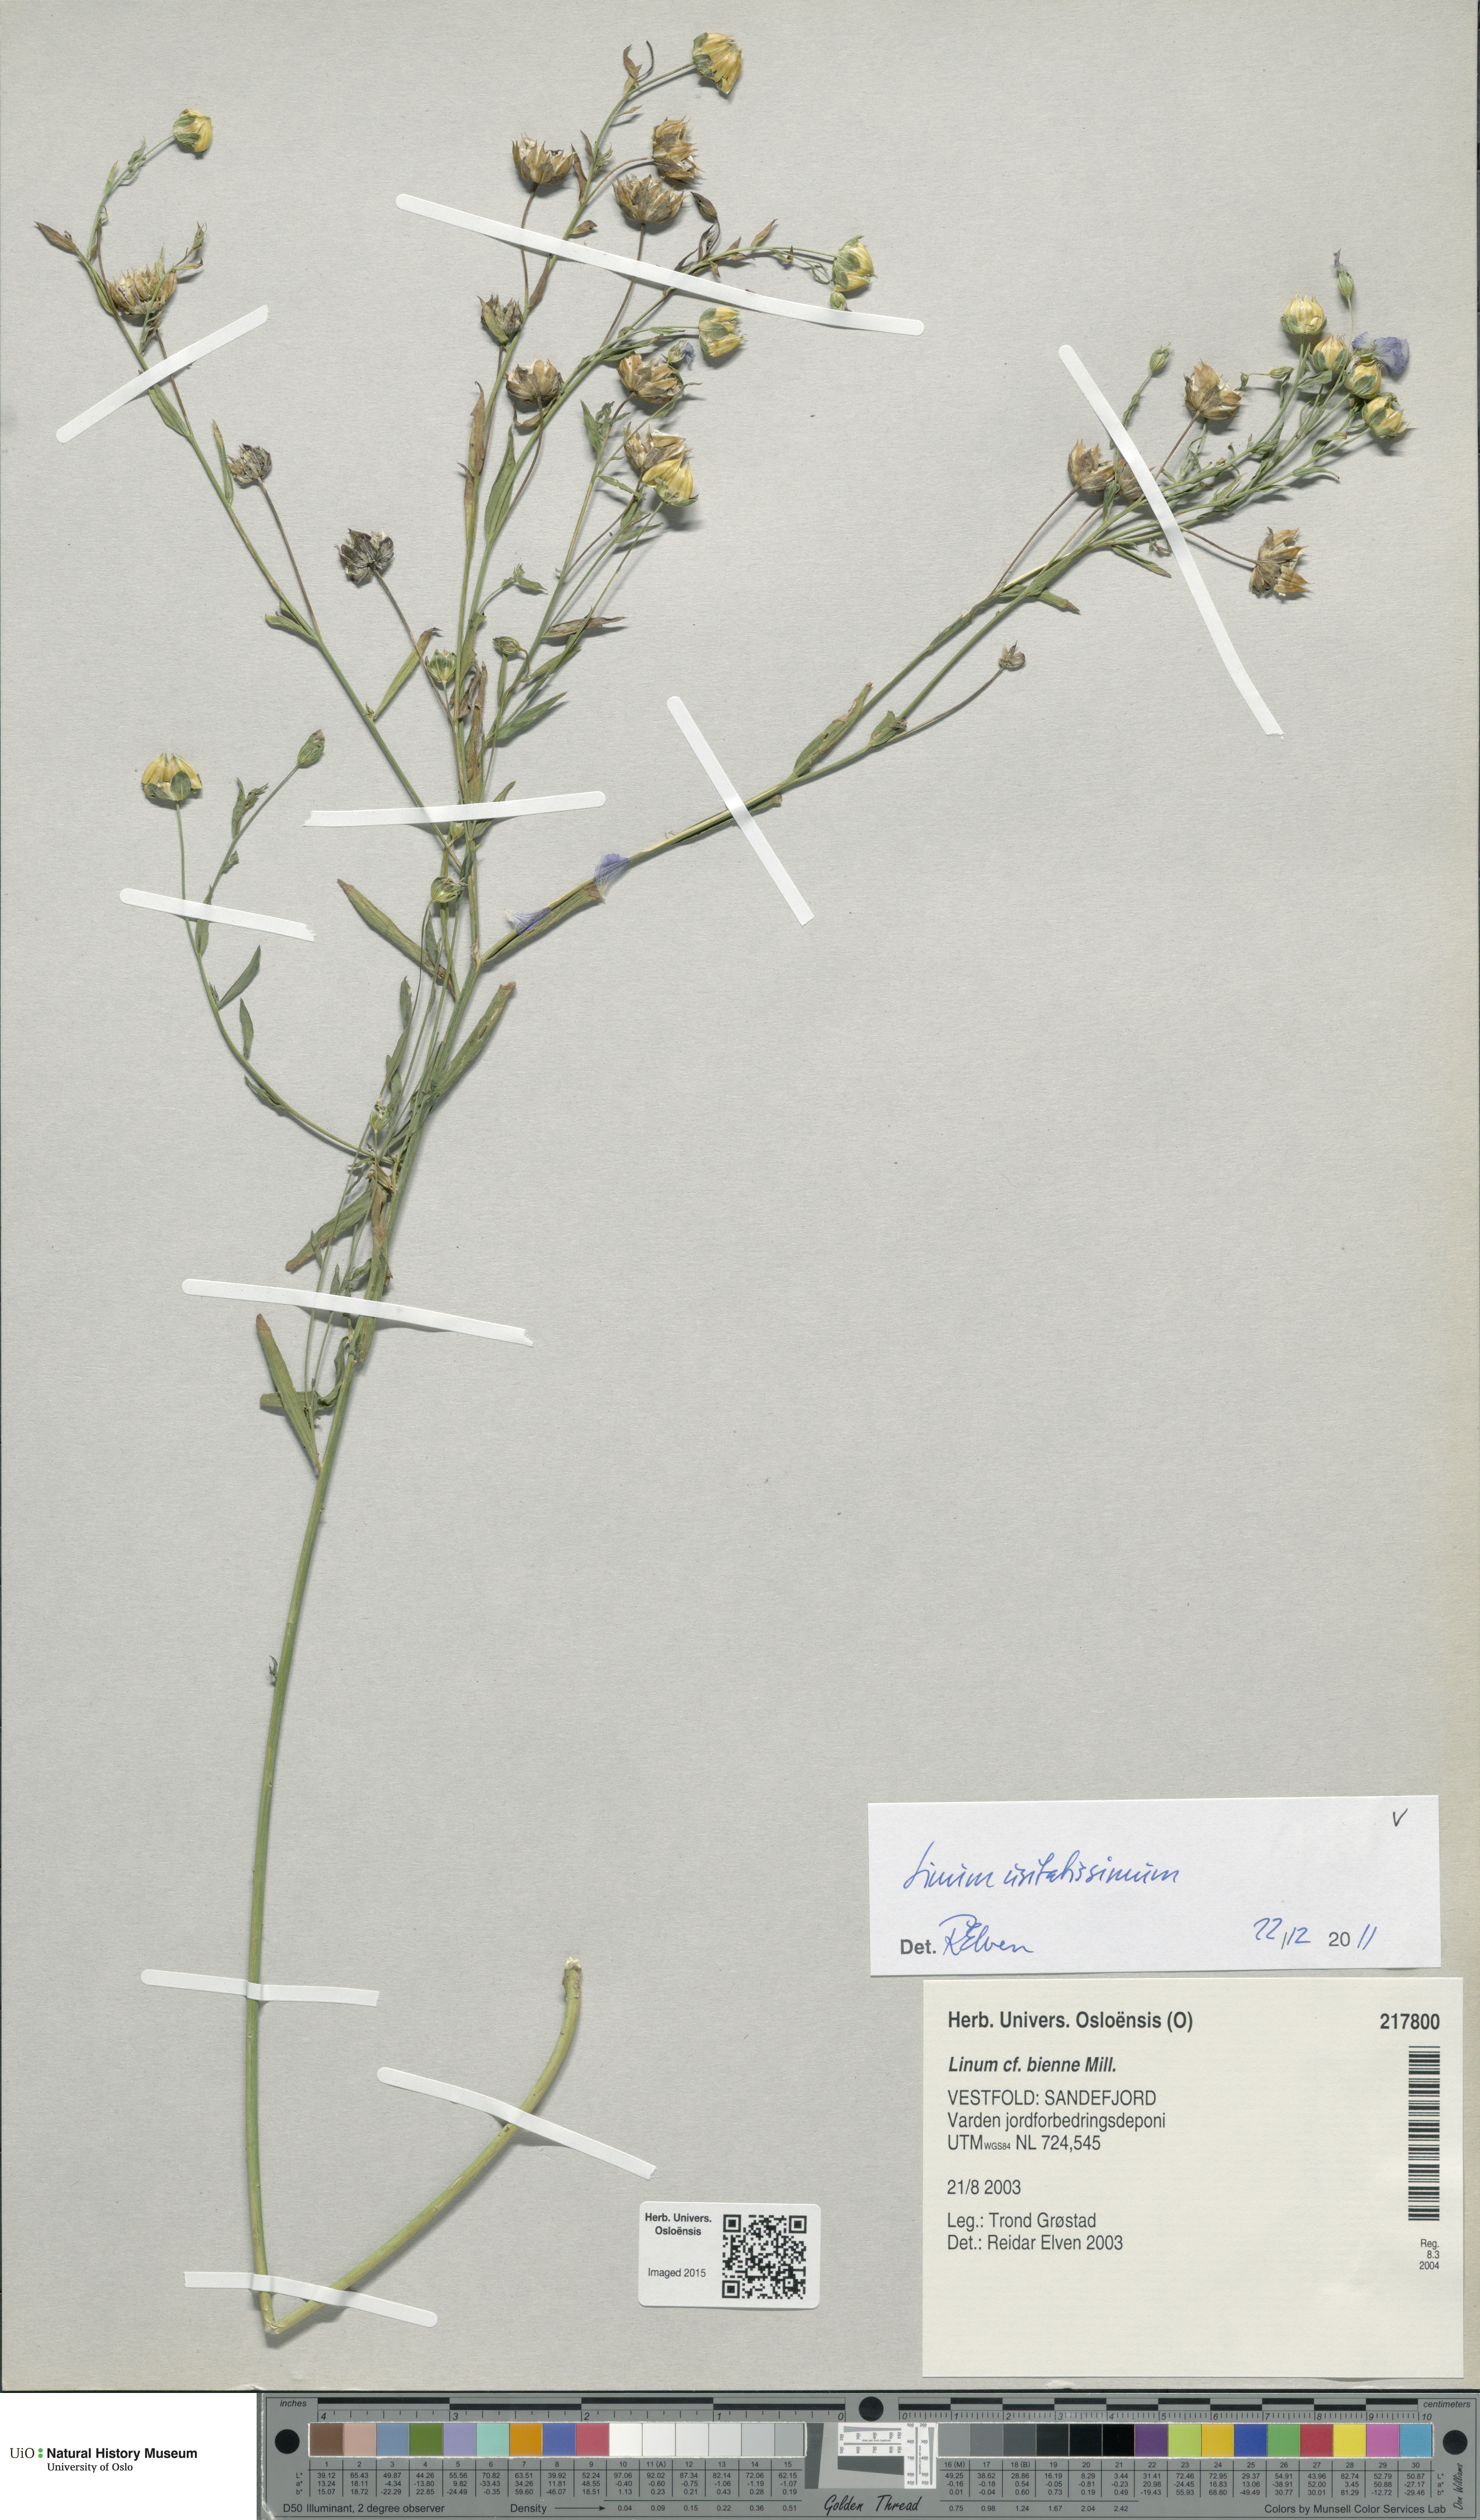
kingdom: Plantae
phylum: Tracheophyta
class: Magnoliopsida
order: Malpighiales
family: Linaceae
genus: Linum
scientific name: Linum usitatissimum
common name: Flax
